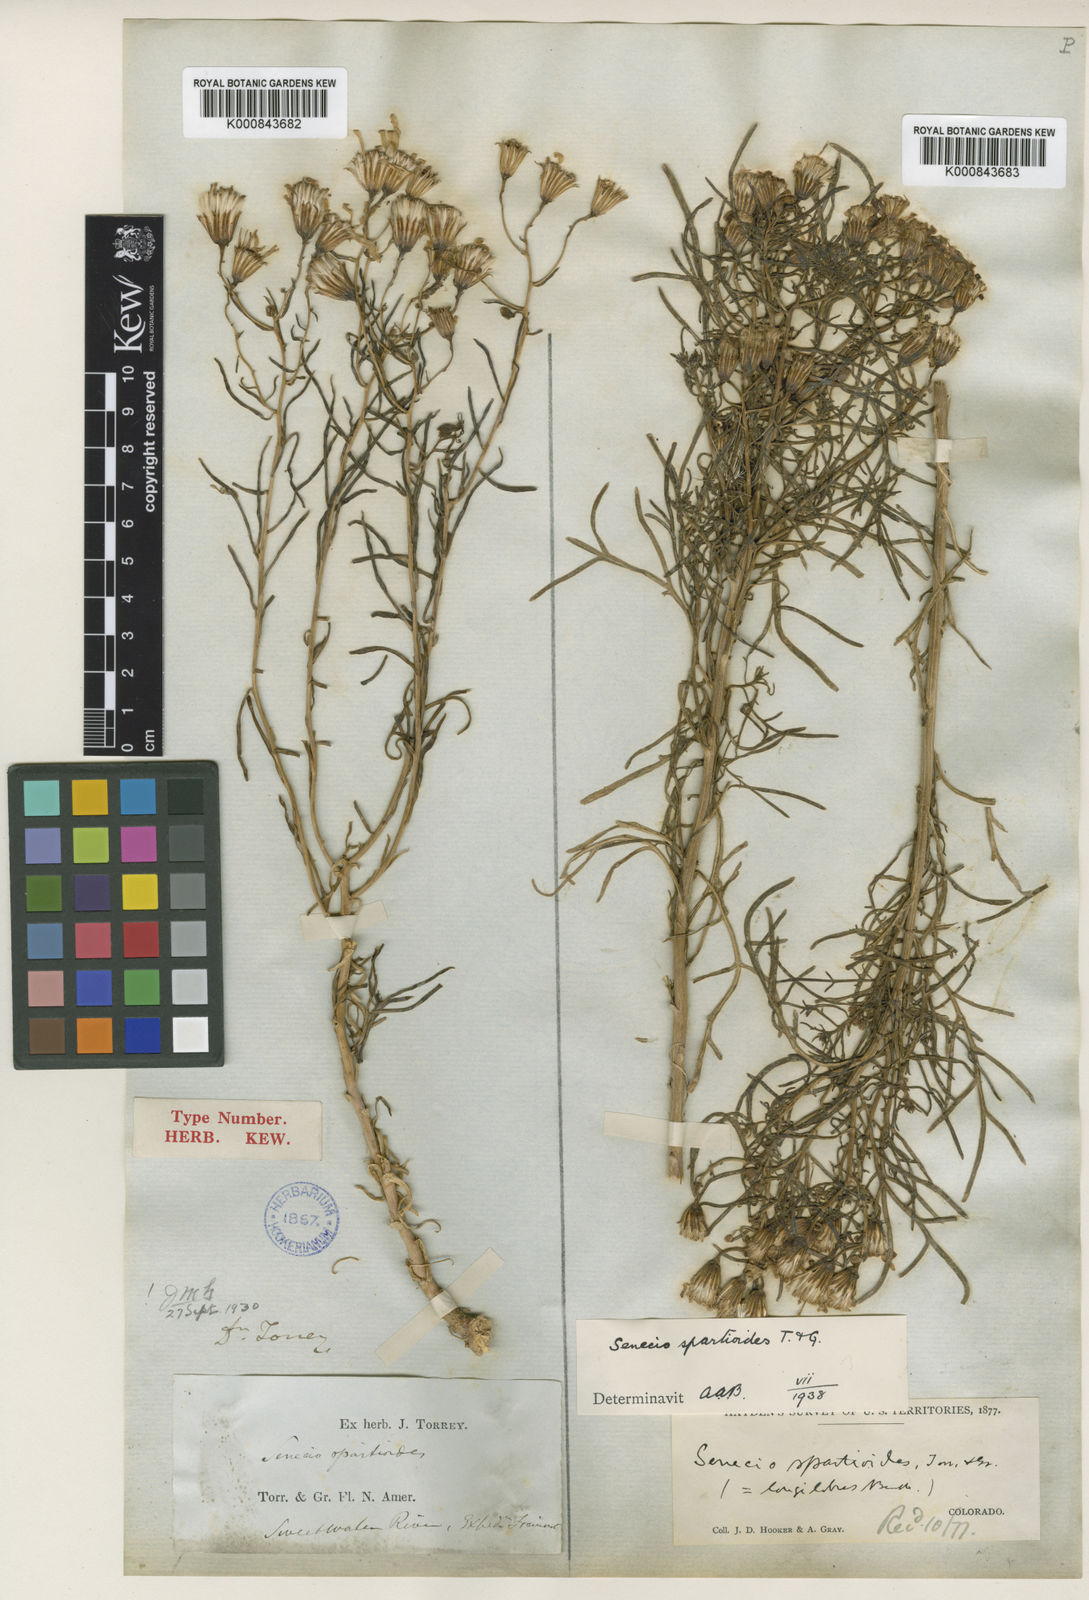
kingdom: Plantae
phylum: Tracheophyta
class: Magnoliopsida
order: Asterales
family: Asteraceae
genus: Senecio
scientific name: Senecio spartioides
